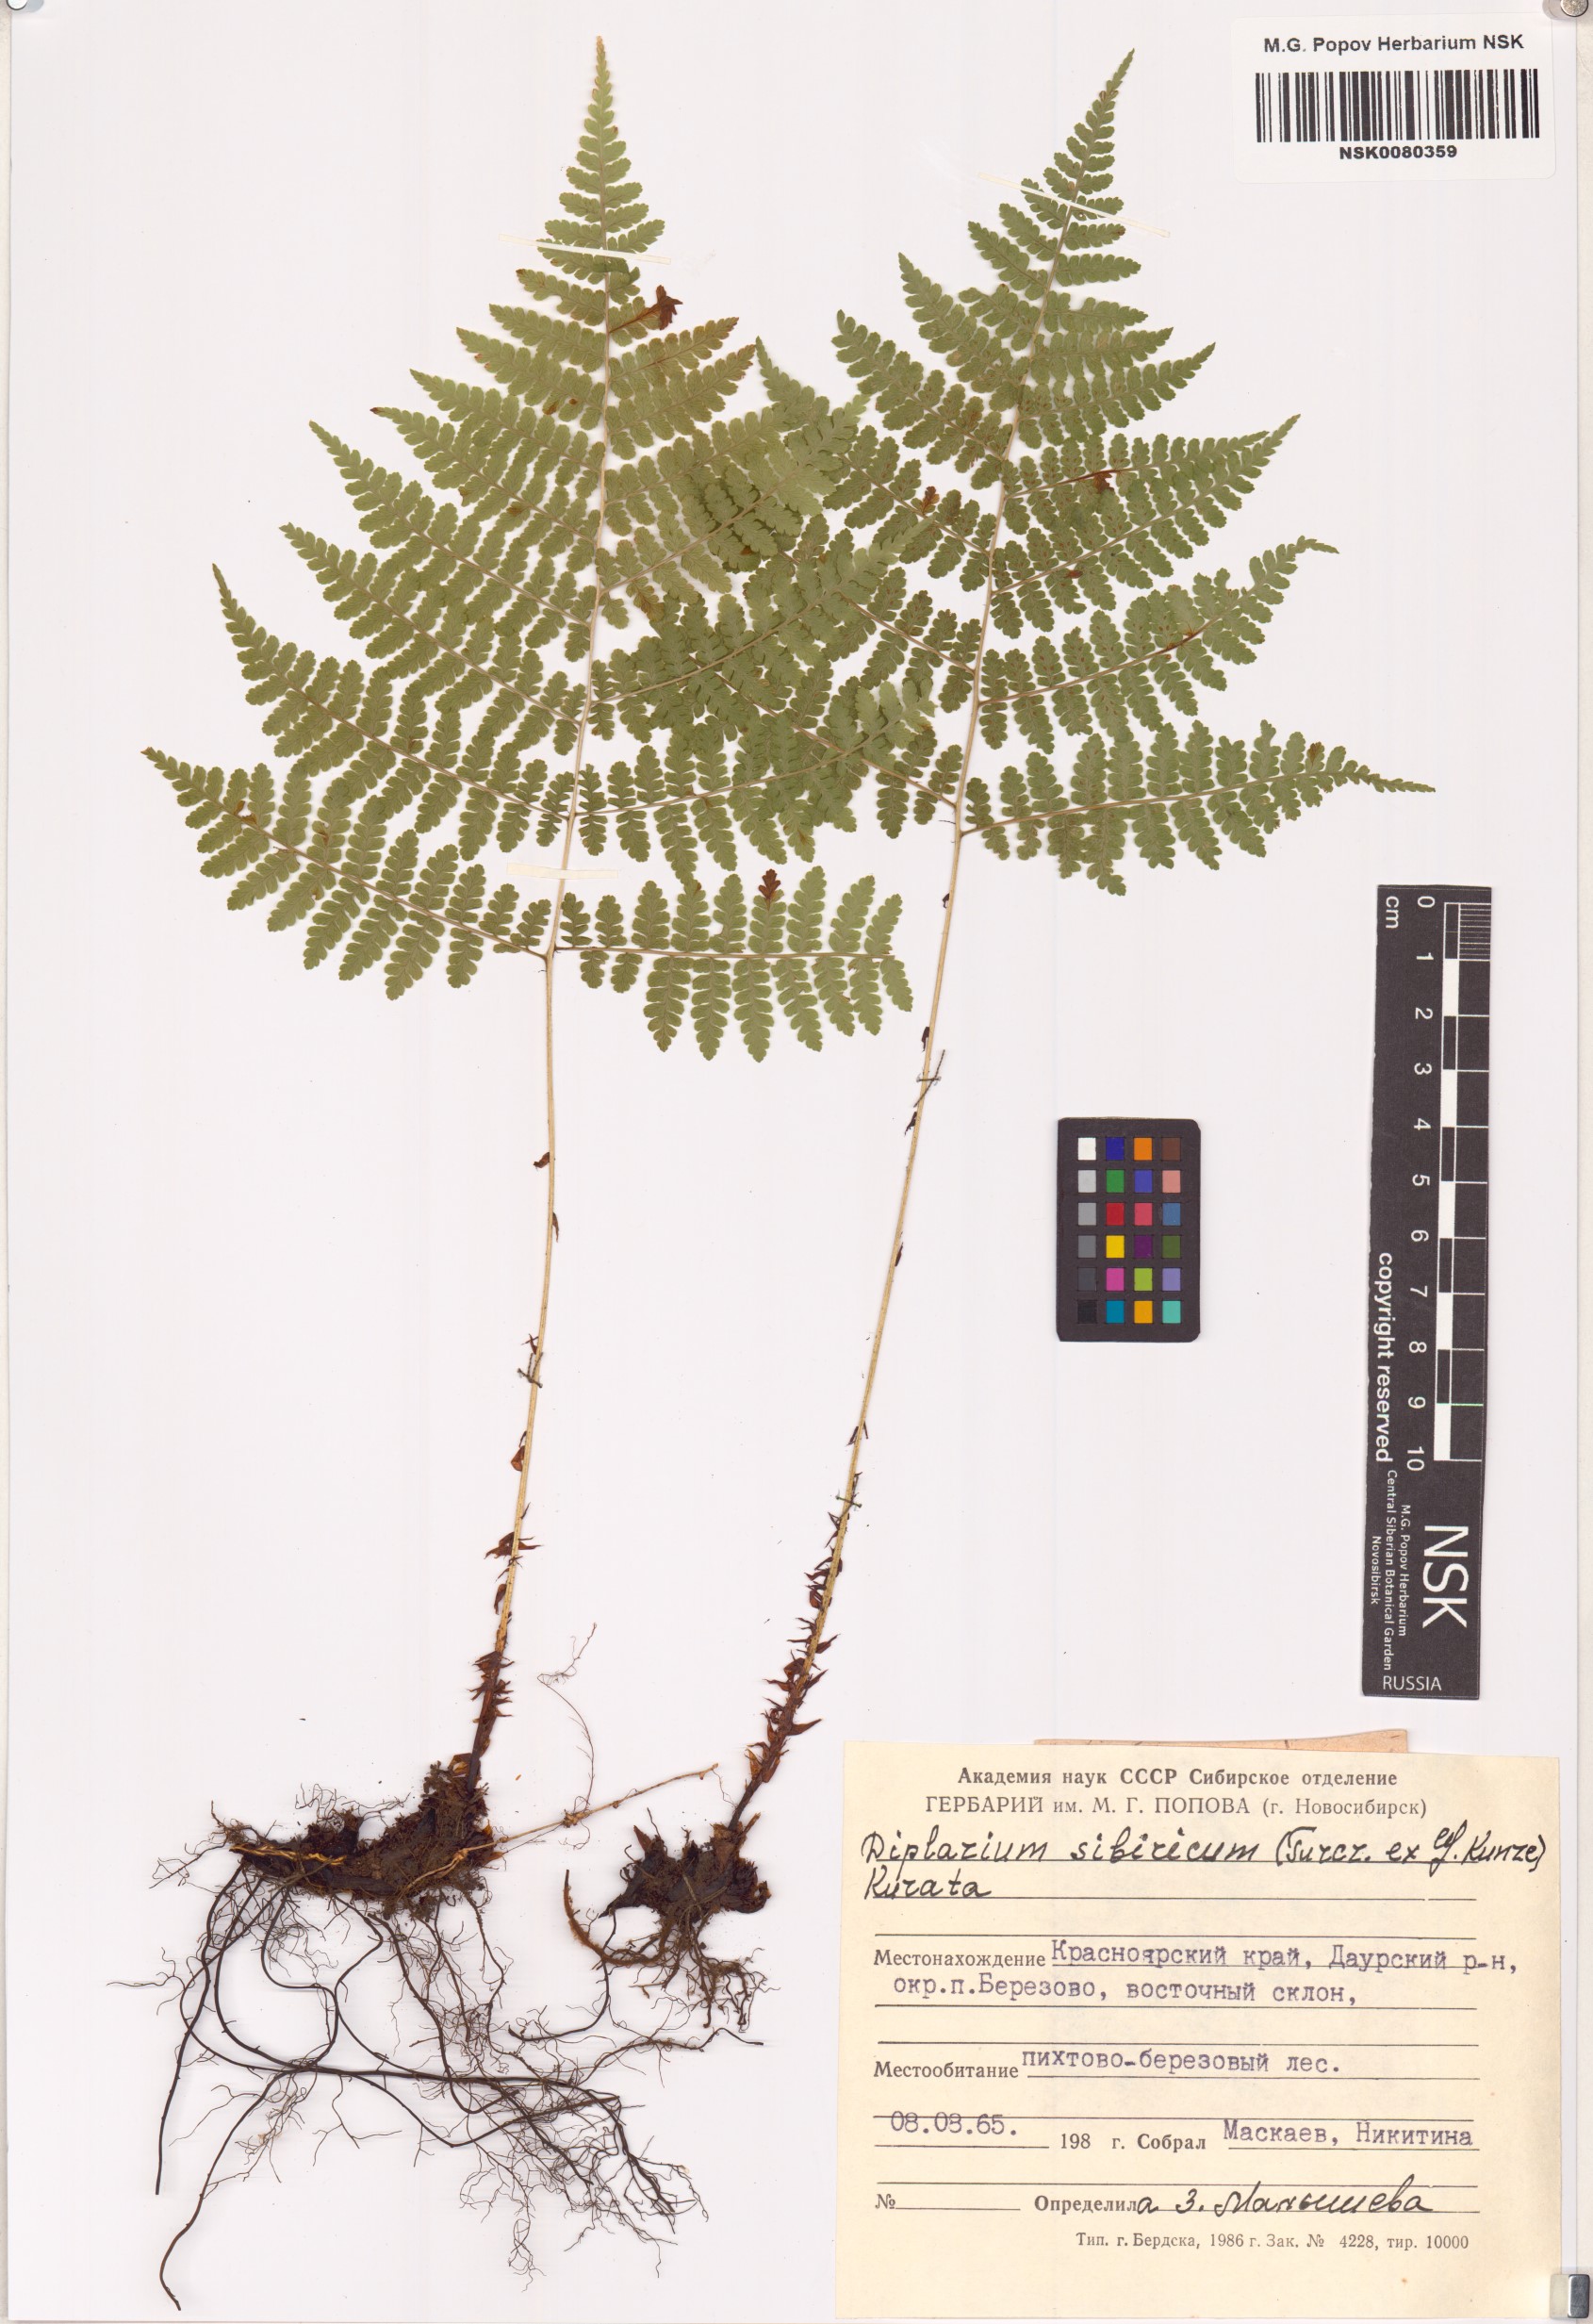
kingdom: Plantae
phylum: Tracheophyta
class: Polypodiopsida
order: Polypodiales
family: Athyriaceae
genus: Diplazium
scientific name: Diplazium sibiricum
